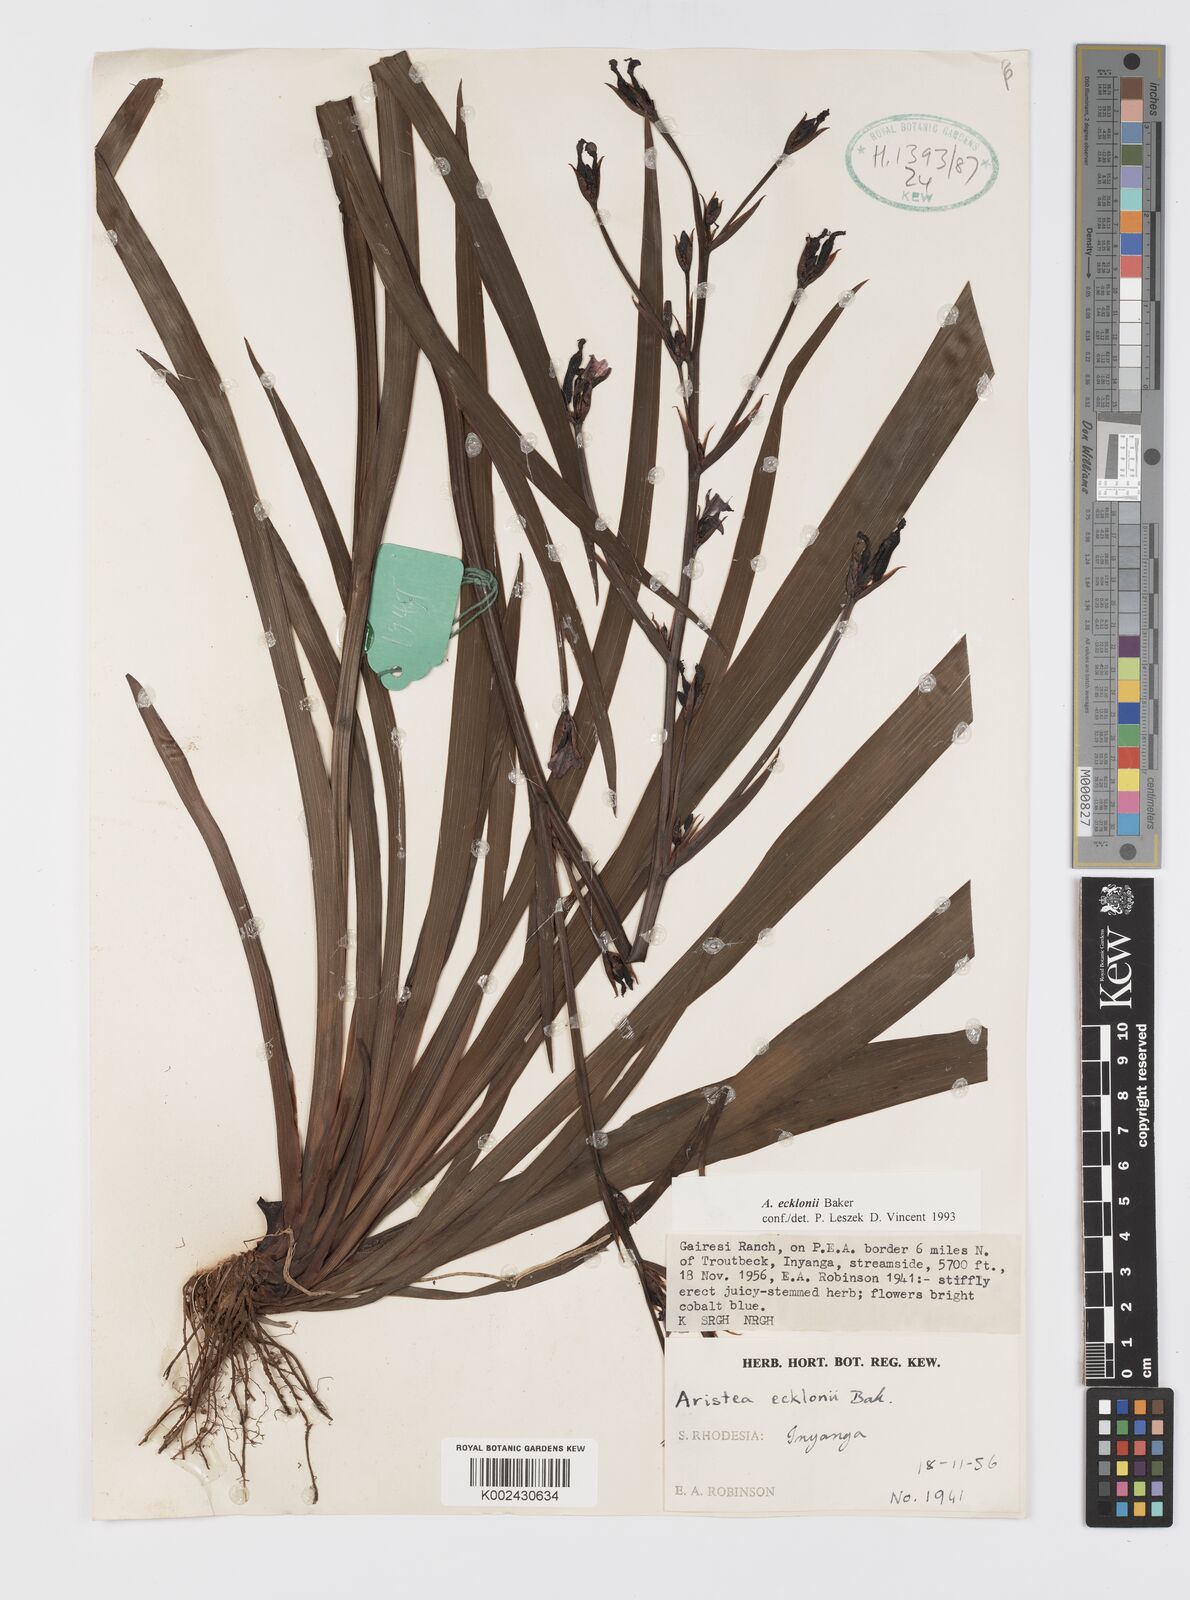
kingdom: Plantae
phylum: Tracheophyta
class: Liliopsida
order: Asparagales
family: Iridaceae
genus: Aristea
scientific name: Aristea ecklonii
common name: Blue corn-lily
